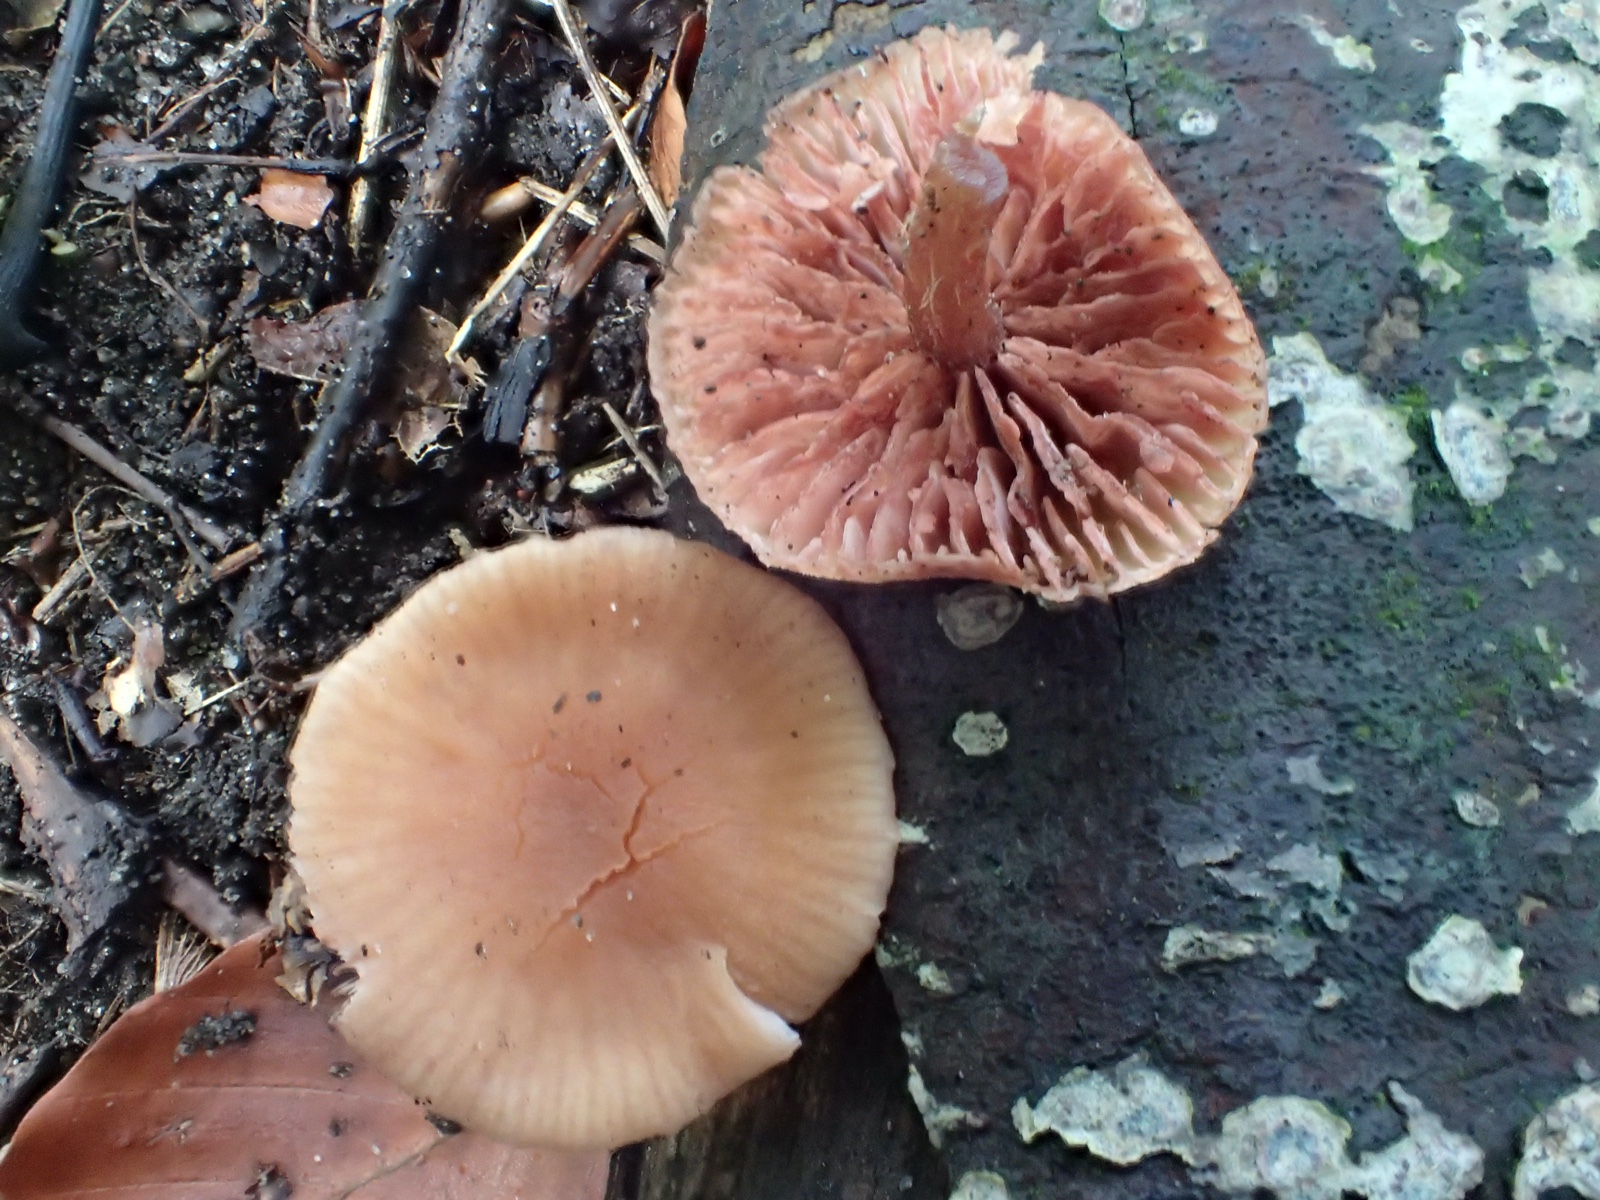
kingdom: Fungi
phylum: Basidiomycota
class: Agaricomycetes
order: Agaricales
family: Hydnangiaceae
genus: Laccaria
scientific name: Laccaria laccata
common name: rød ametysthat
